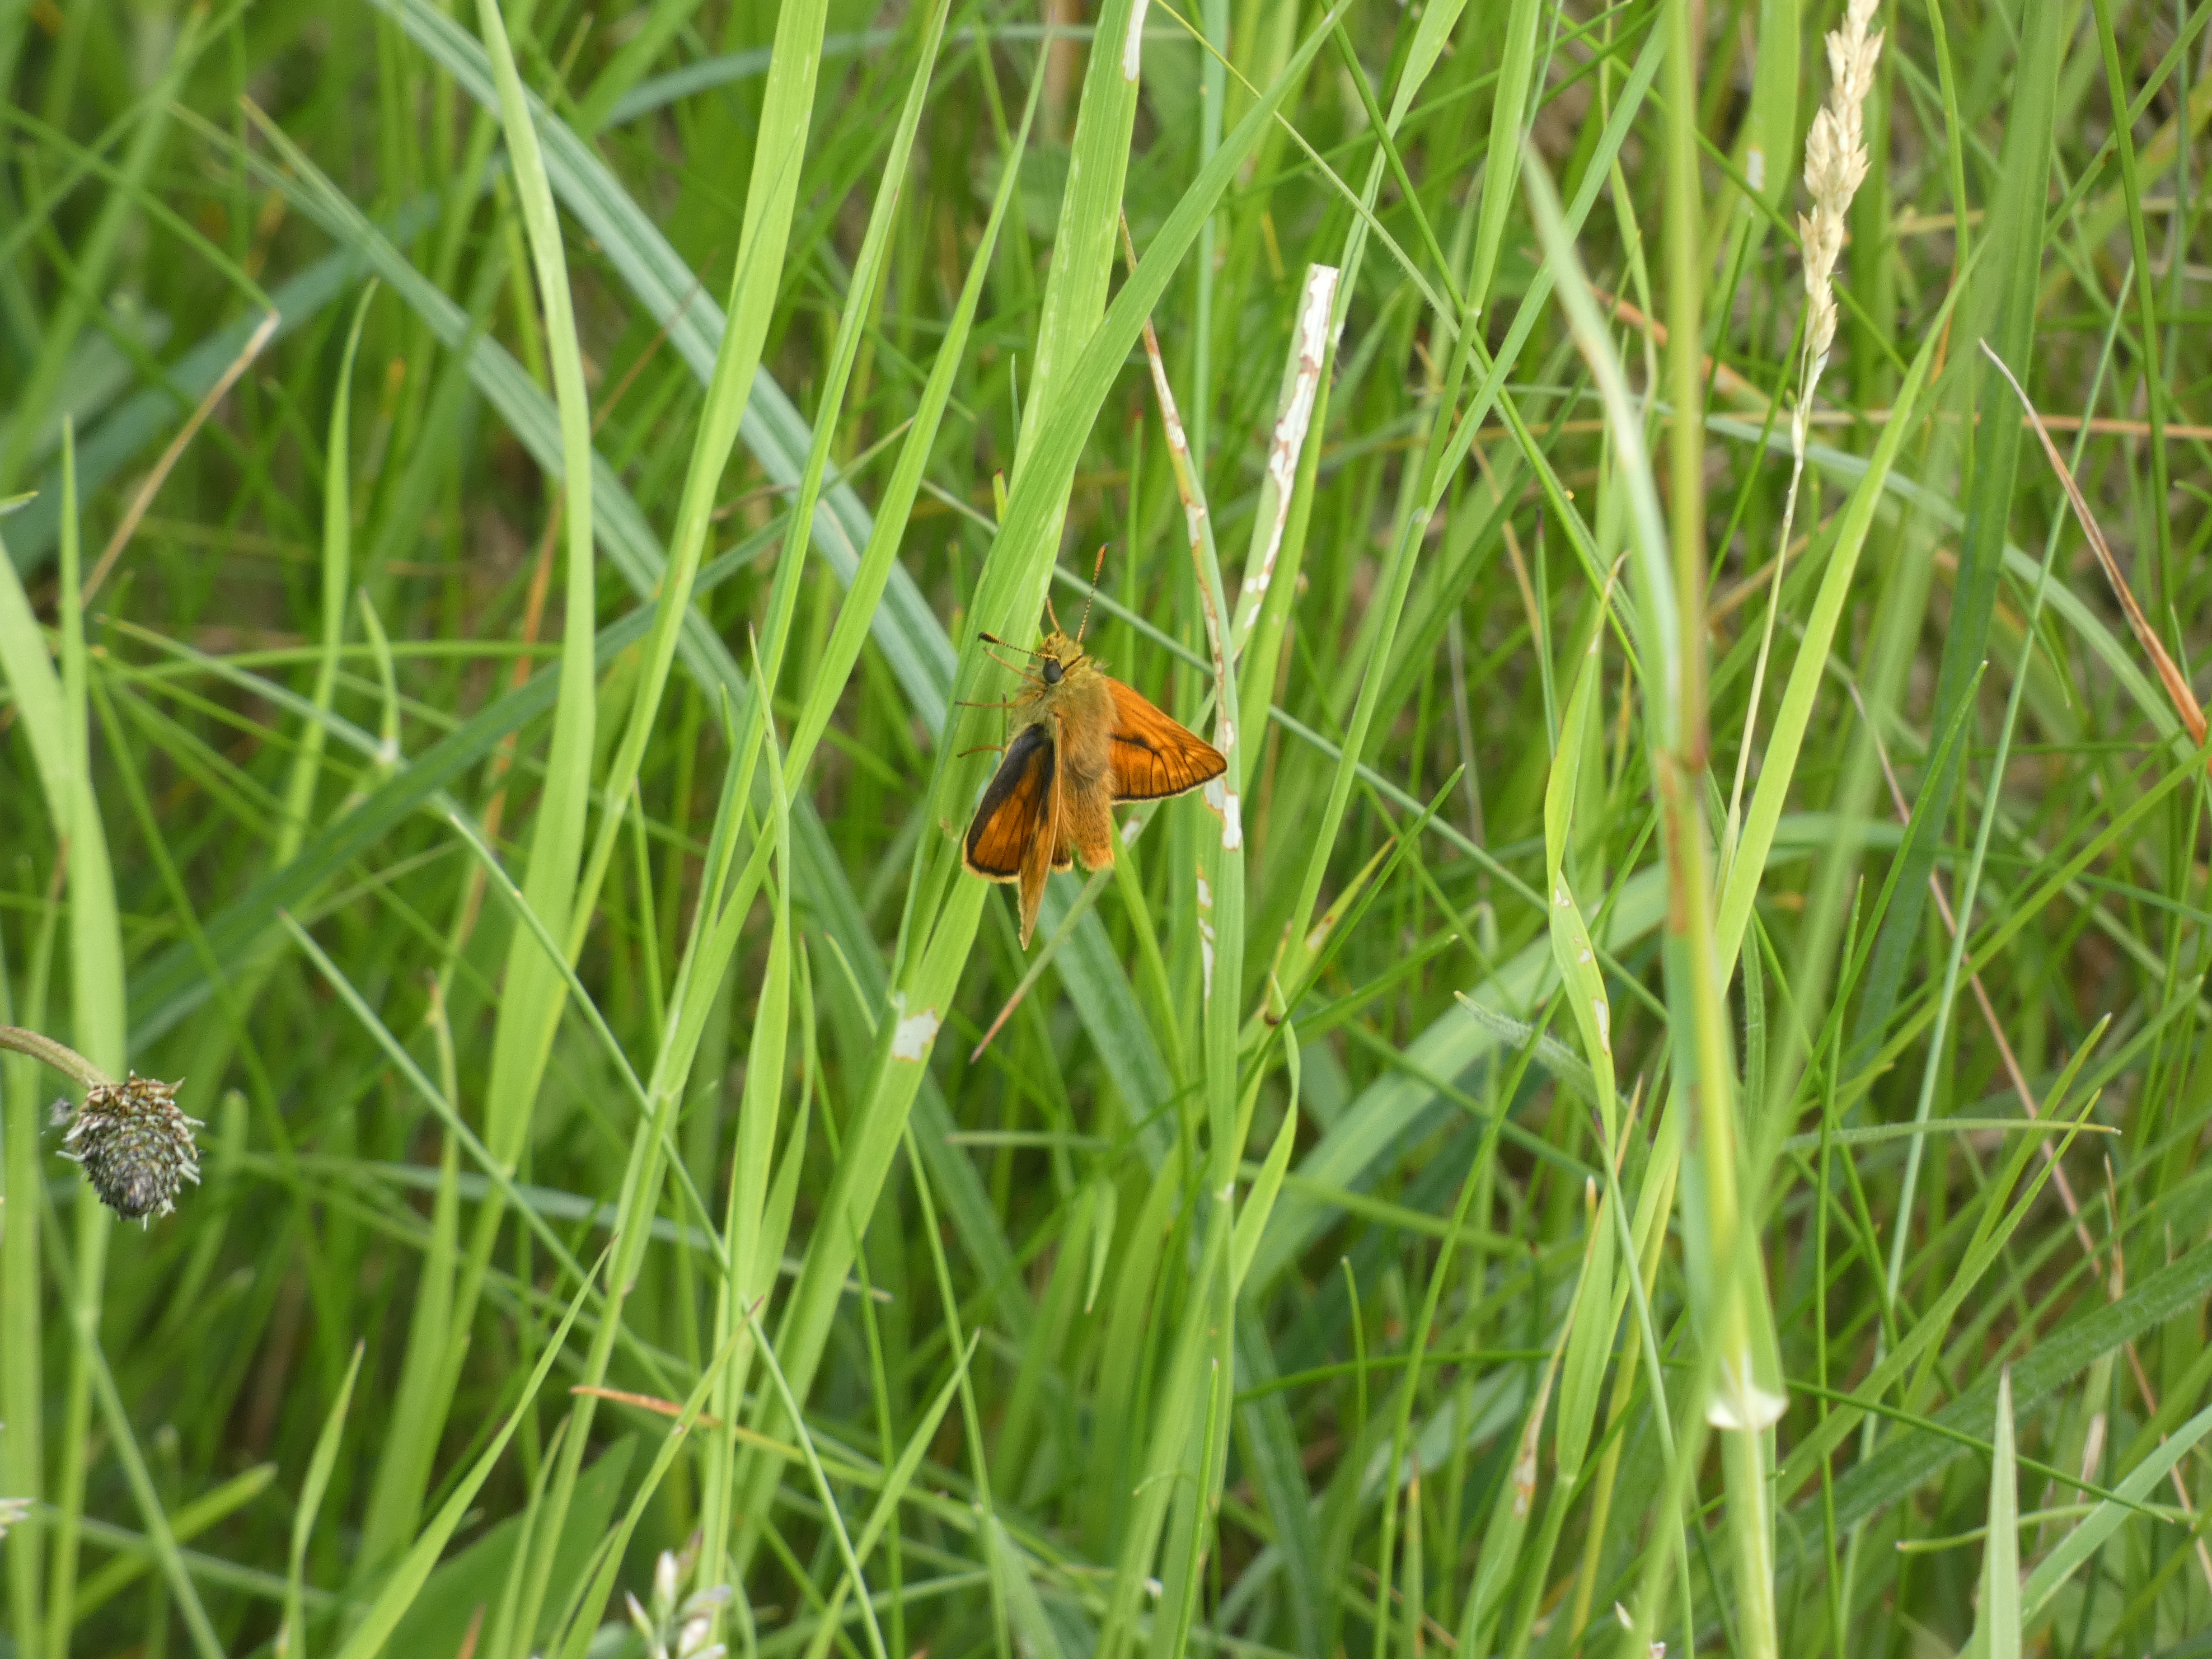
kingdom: Animalia
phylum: Arthropoda
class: Insecta
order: Lepidoptera
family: Hesperiidae
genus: Ochlodes
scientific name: Ochlodes venata
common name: Stor bredpande
